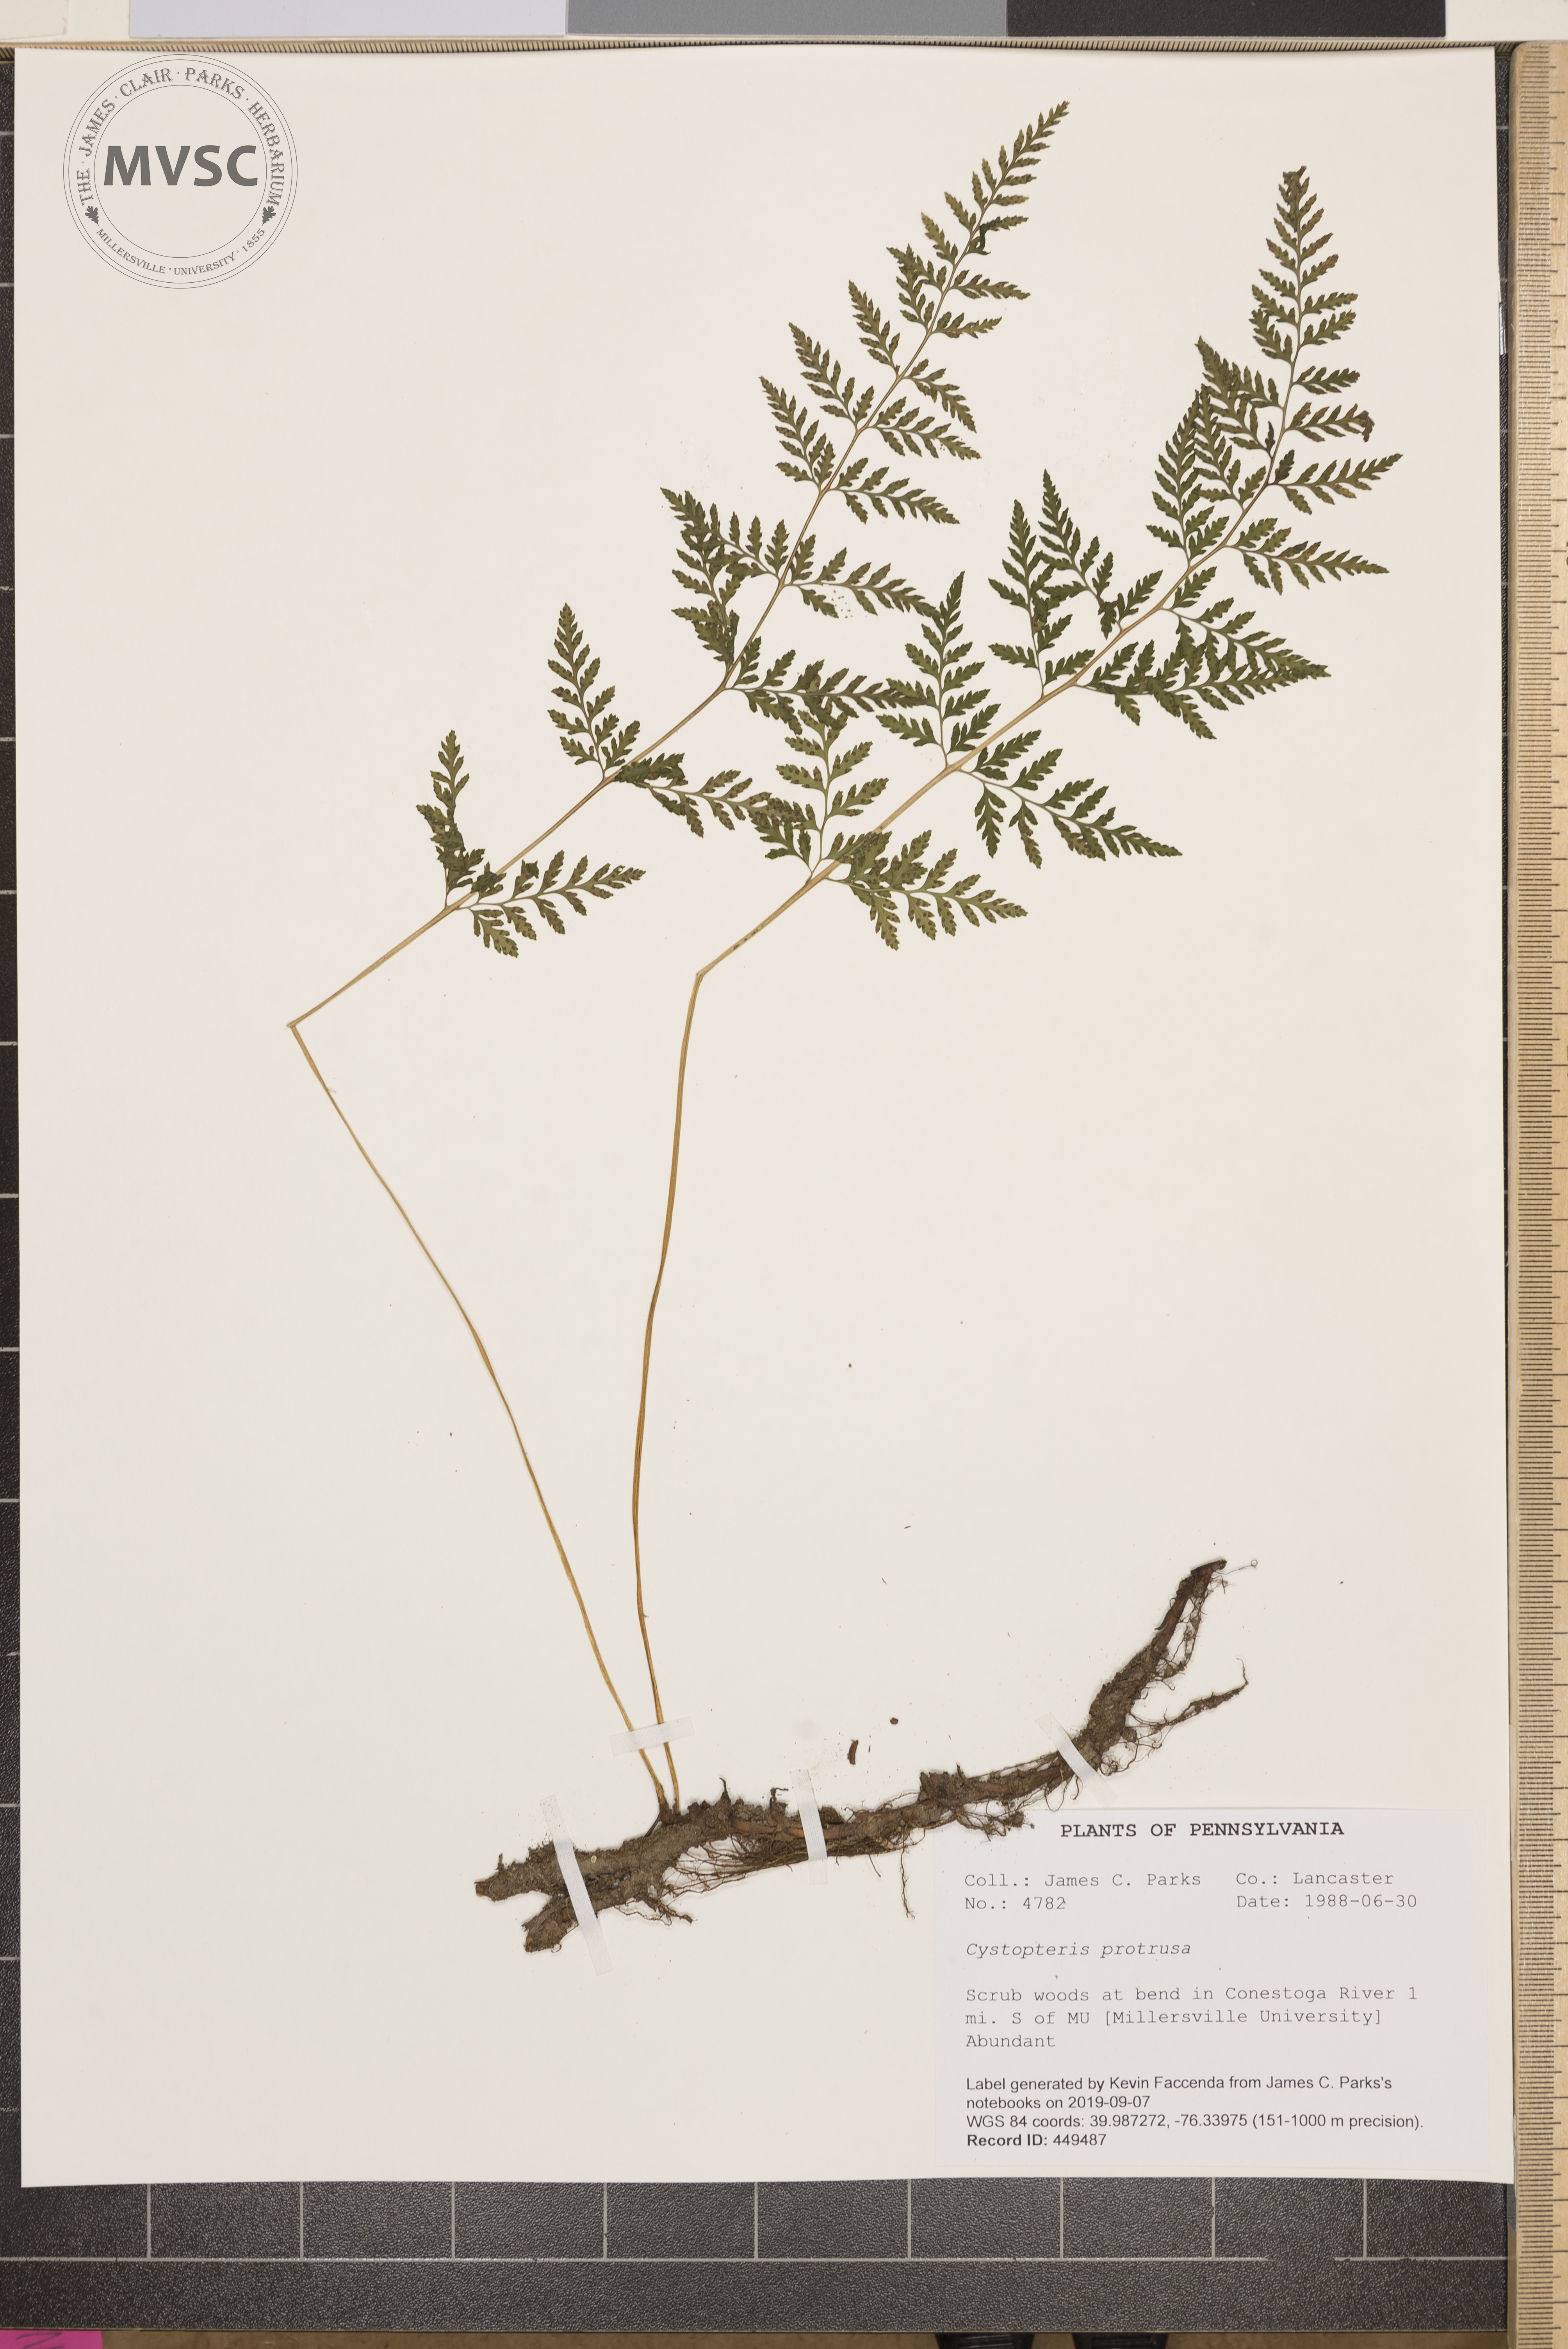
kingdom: Plantae
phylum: Tracheophyta
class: Polypodiopsida
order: Polypodiales
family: Cystopteridaceae
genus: Cystopteris
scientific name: Cystopteris protrusa
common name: Lowland brittle fern
